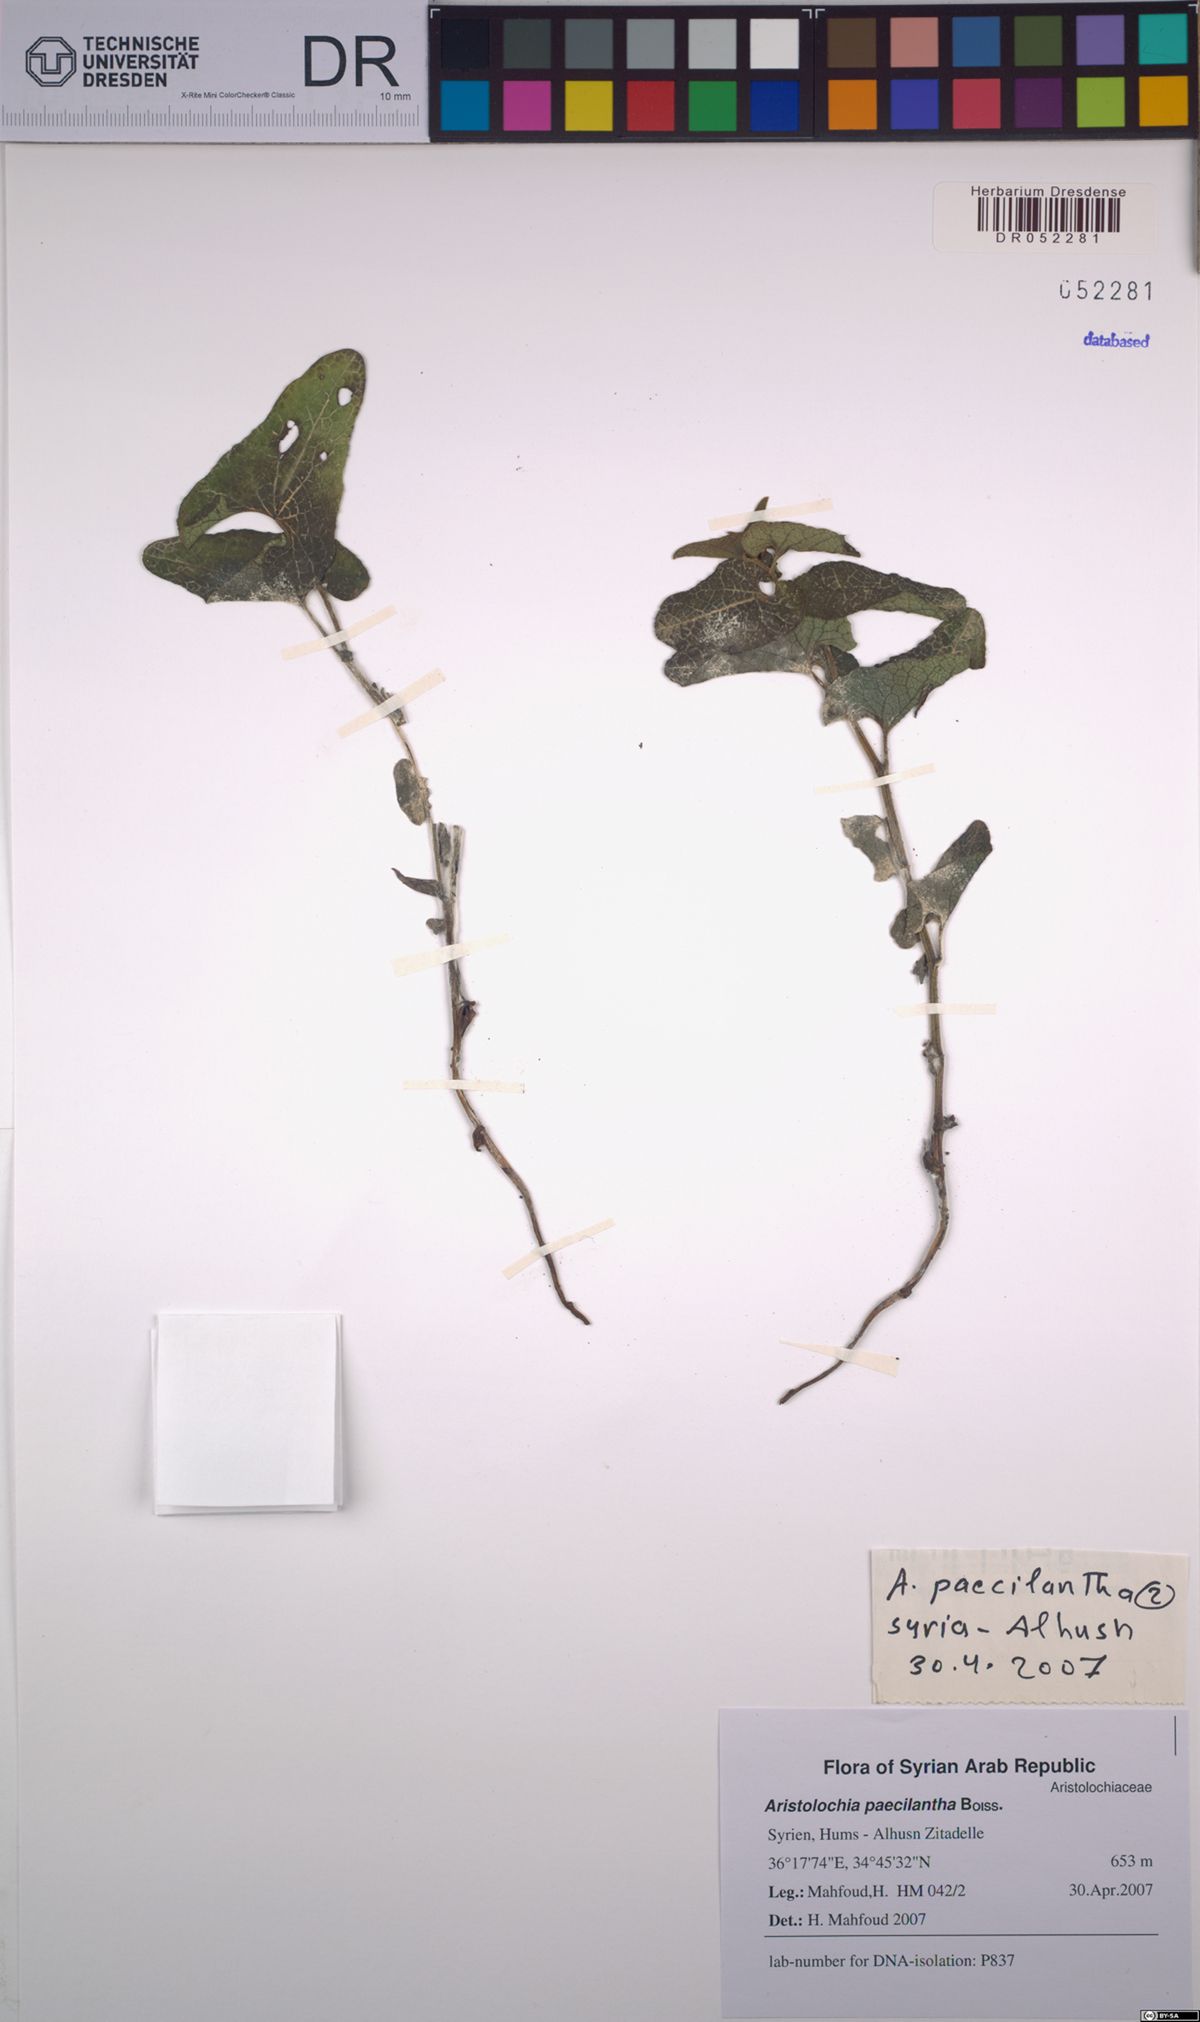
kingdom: Plantae
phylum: Tracheophyta
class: Magnoliopsida
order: Piperales
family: Aristolochiaceae
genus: Aristolochia
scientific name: Aristolochia paecilantha
